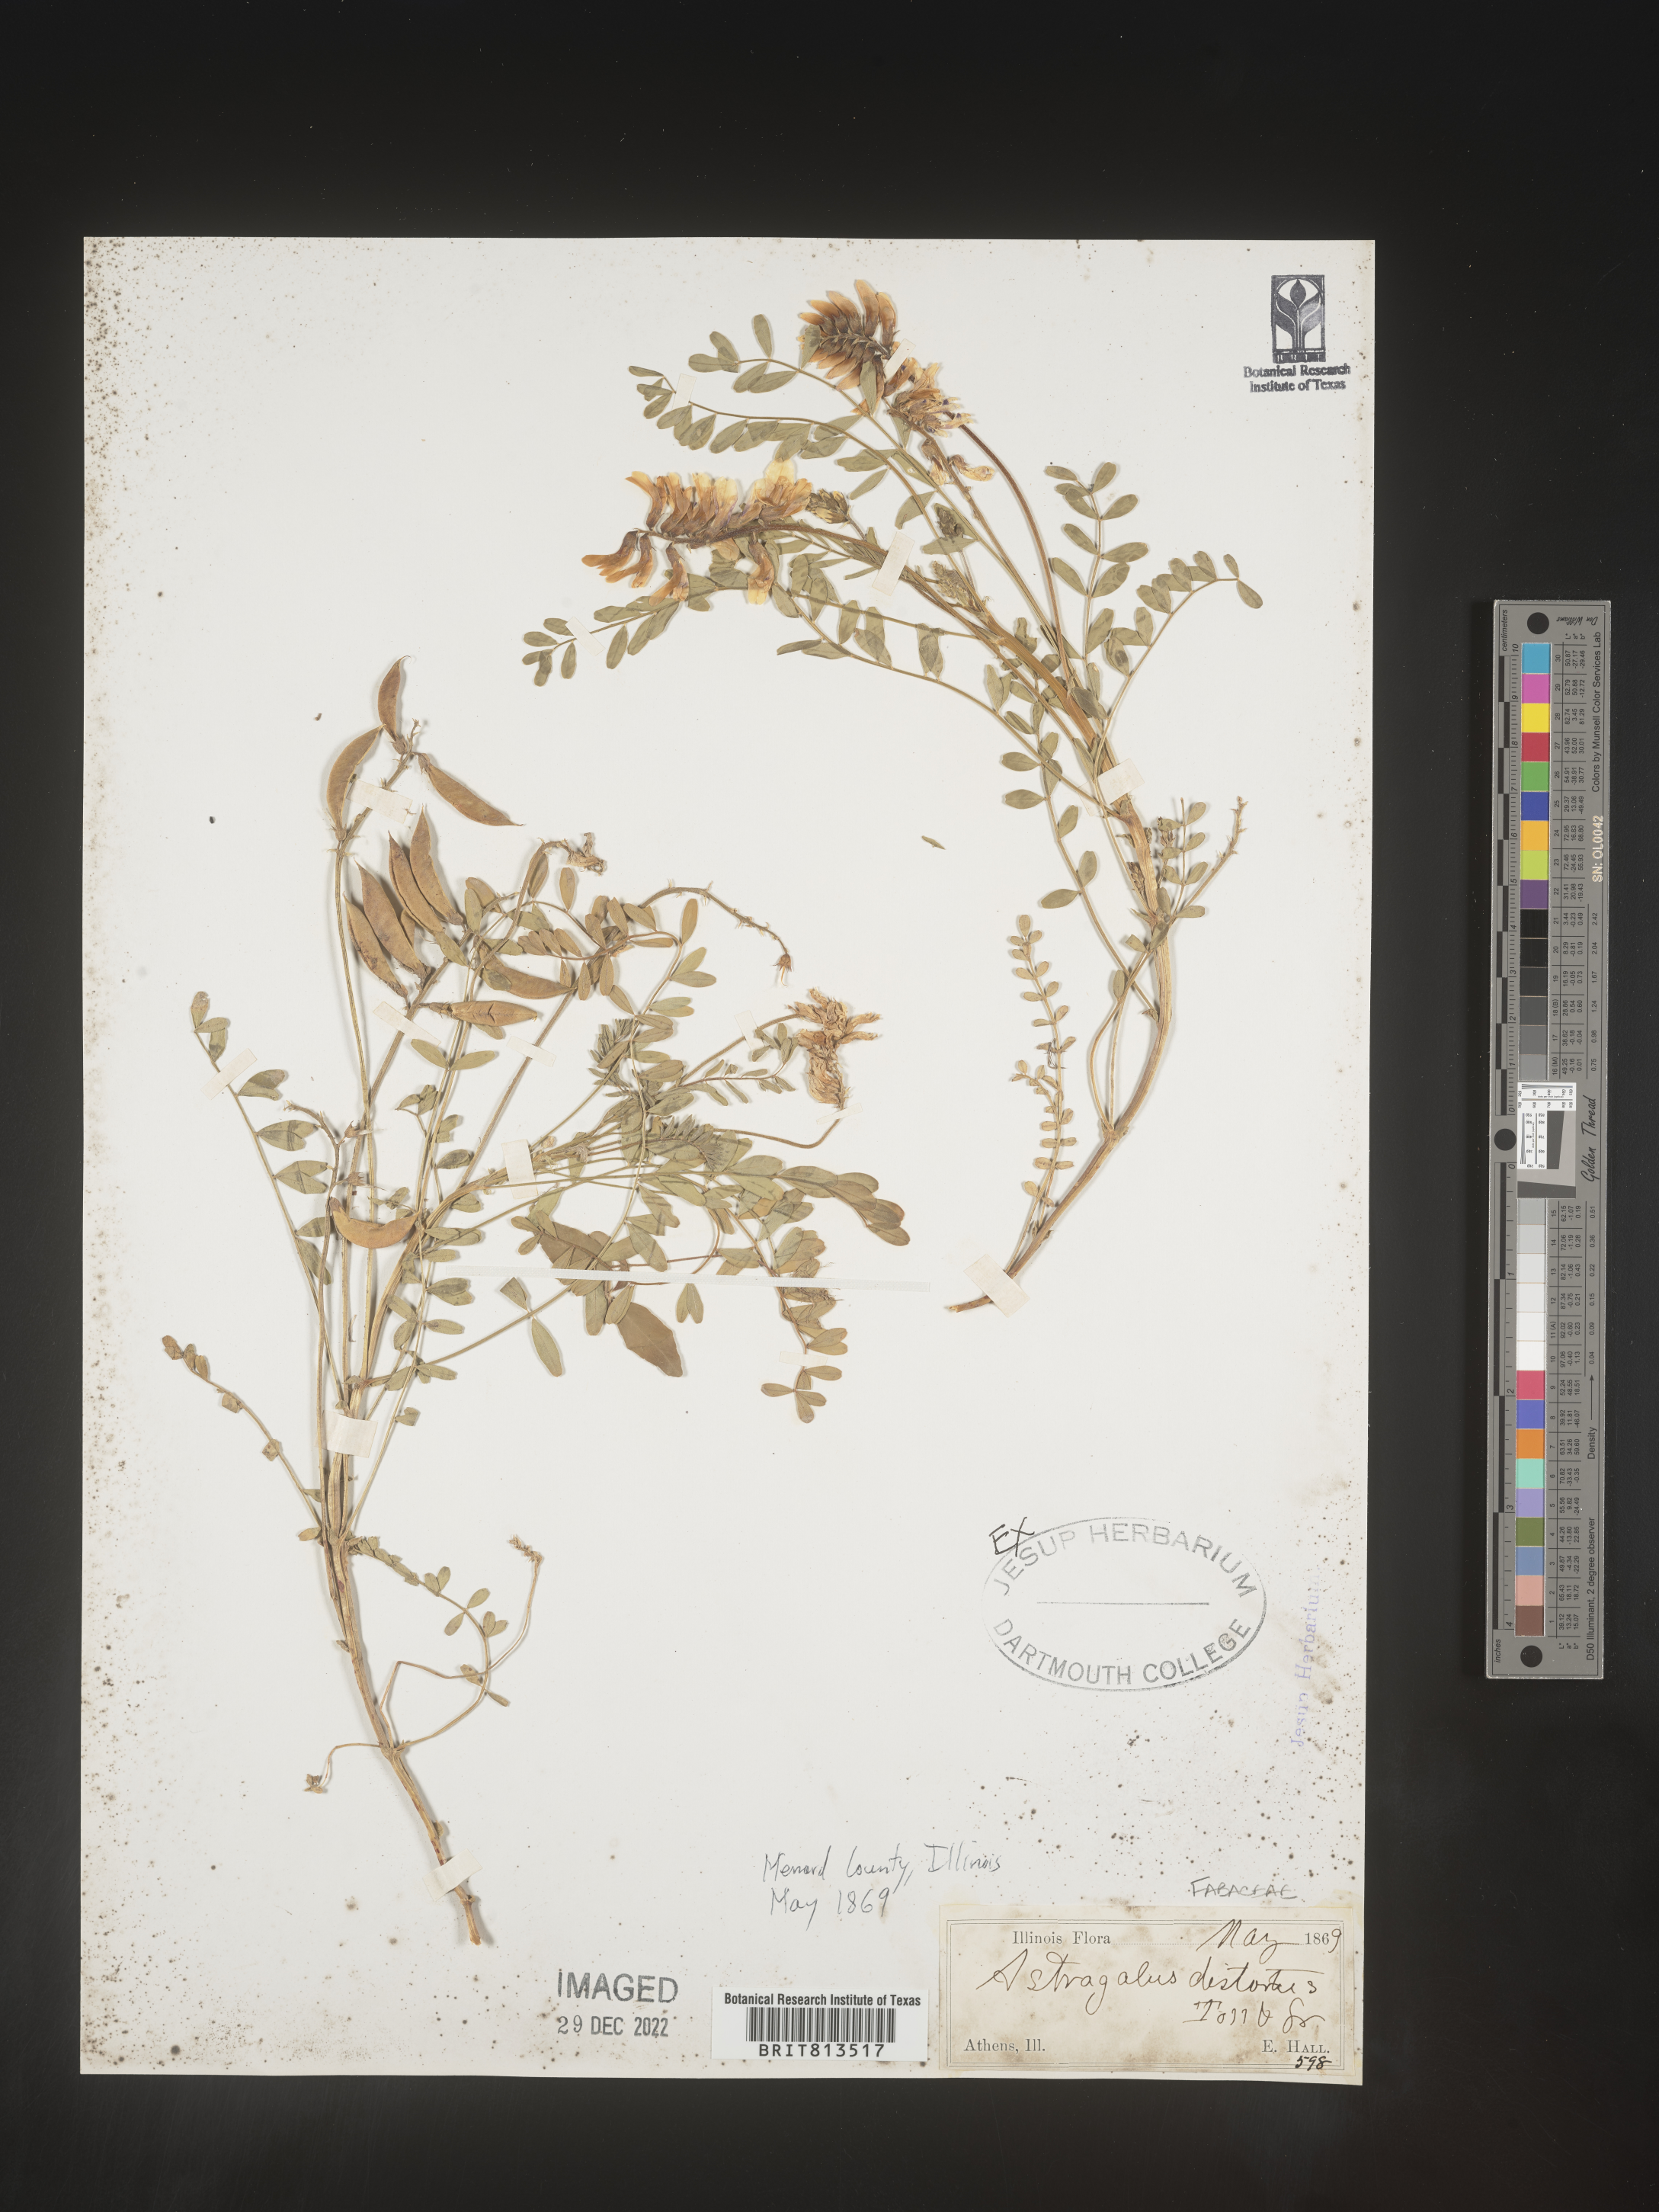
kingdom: Plantae
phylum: Tracheophyta
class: Magnoliopsida
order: Fabales
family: Fabaceae
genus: Astragalus
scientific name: Astragalus canadensis
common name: Canada milk-vetch
